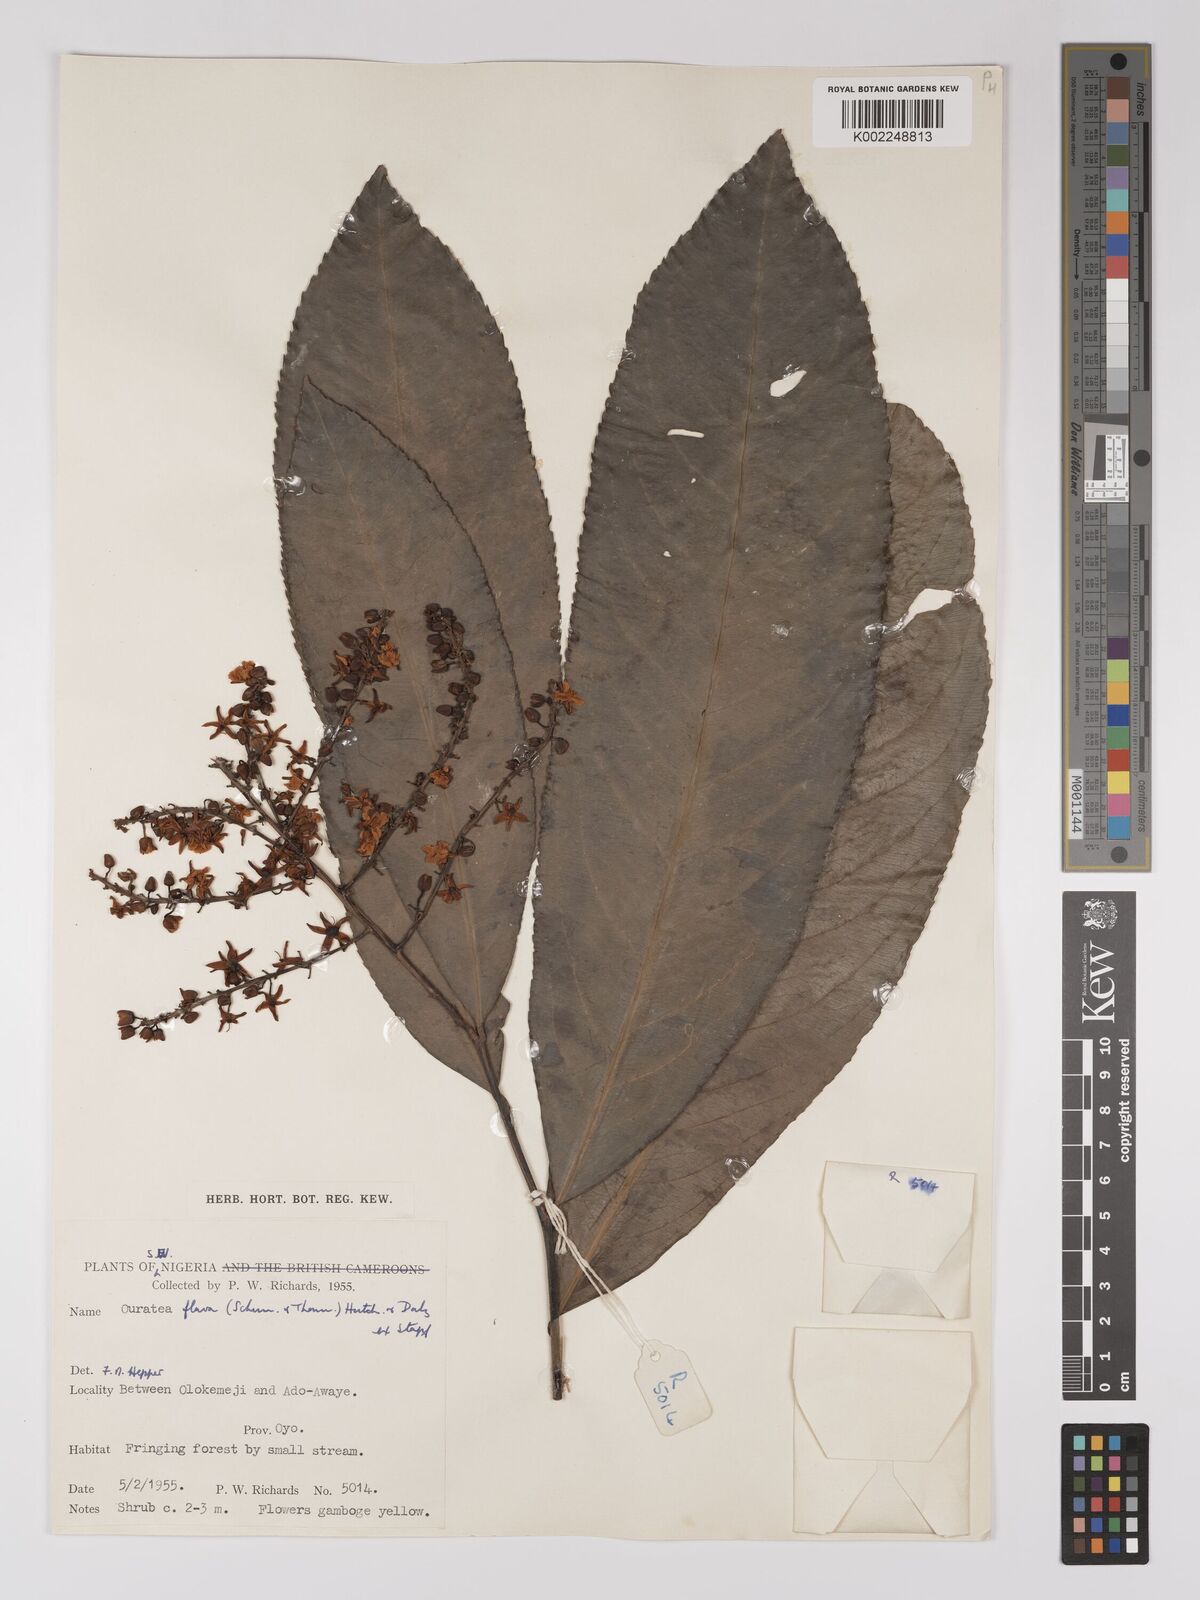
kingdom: Plantae
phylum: Tracheophyta
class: Magnoliopsida
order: Malpighiales
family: Ochnaceae
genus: Campylospermum
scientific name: Campylospermum flavum
